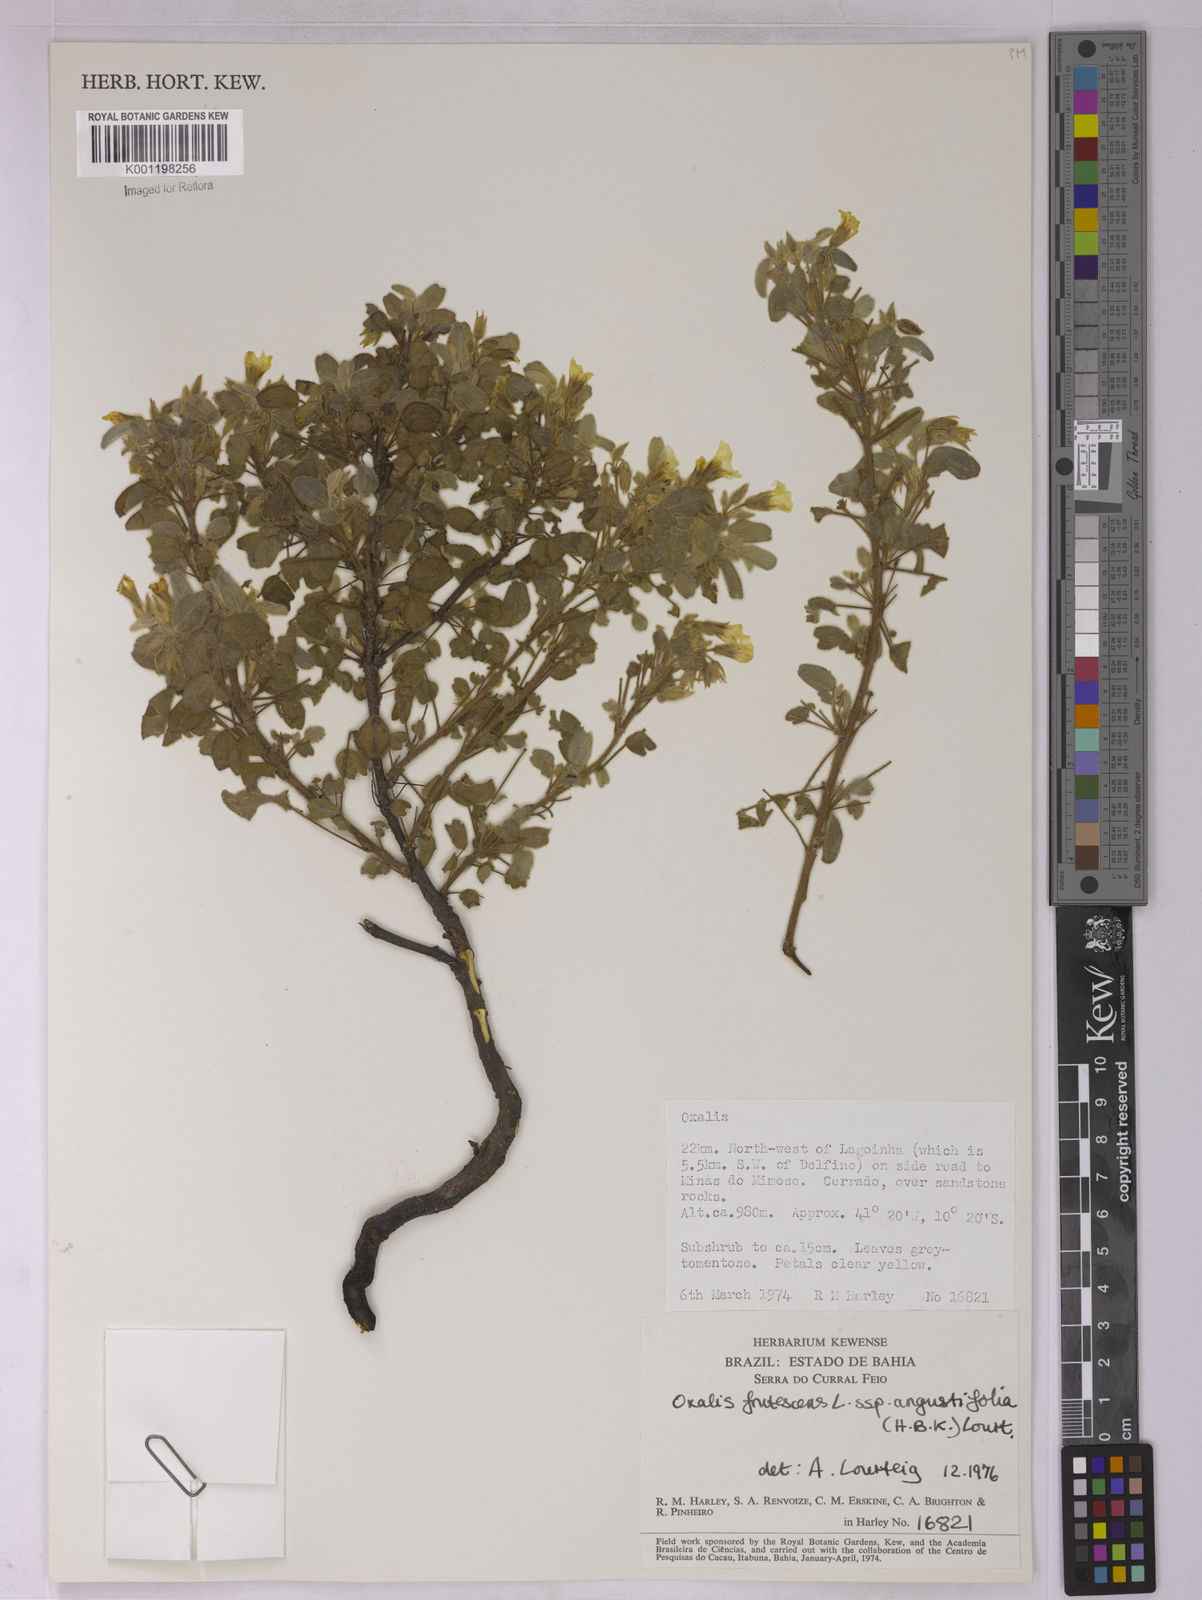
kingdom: Plantae
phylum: Tracheophyta
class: Magnoliopsida
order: Oxalidales
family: Oxalidaceae
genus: Oxalis
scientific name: Oxalis frutescens
